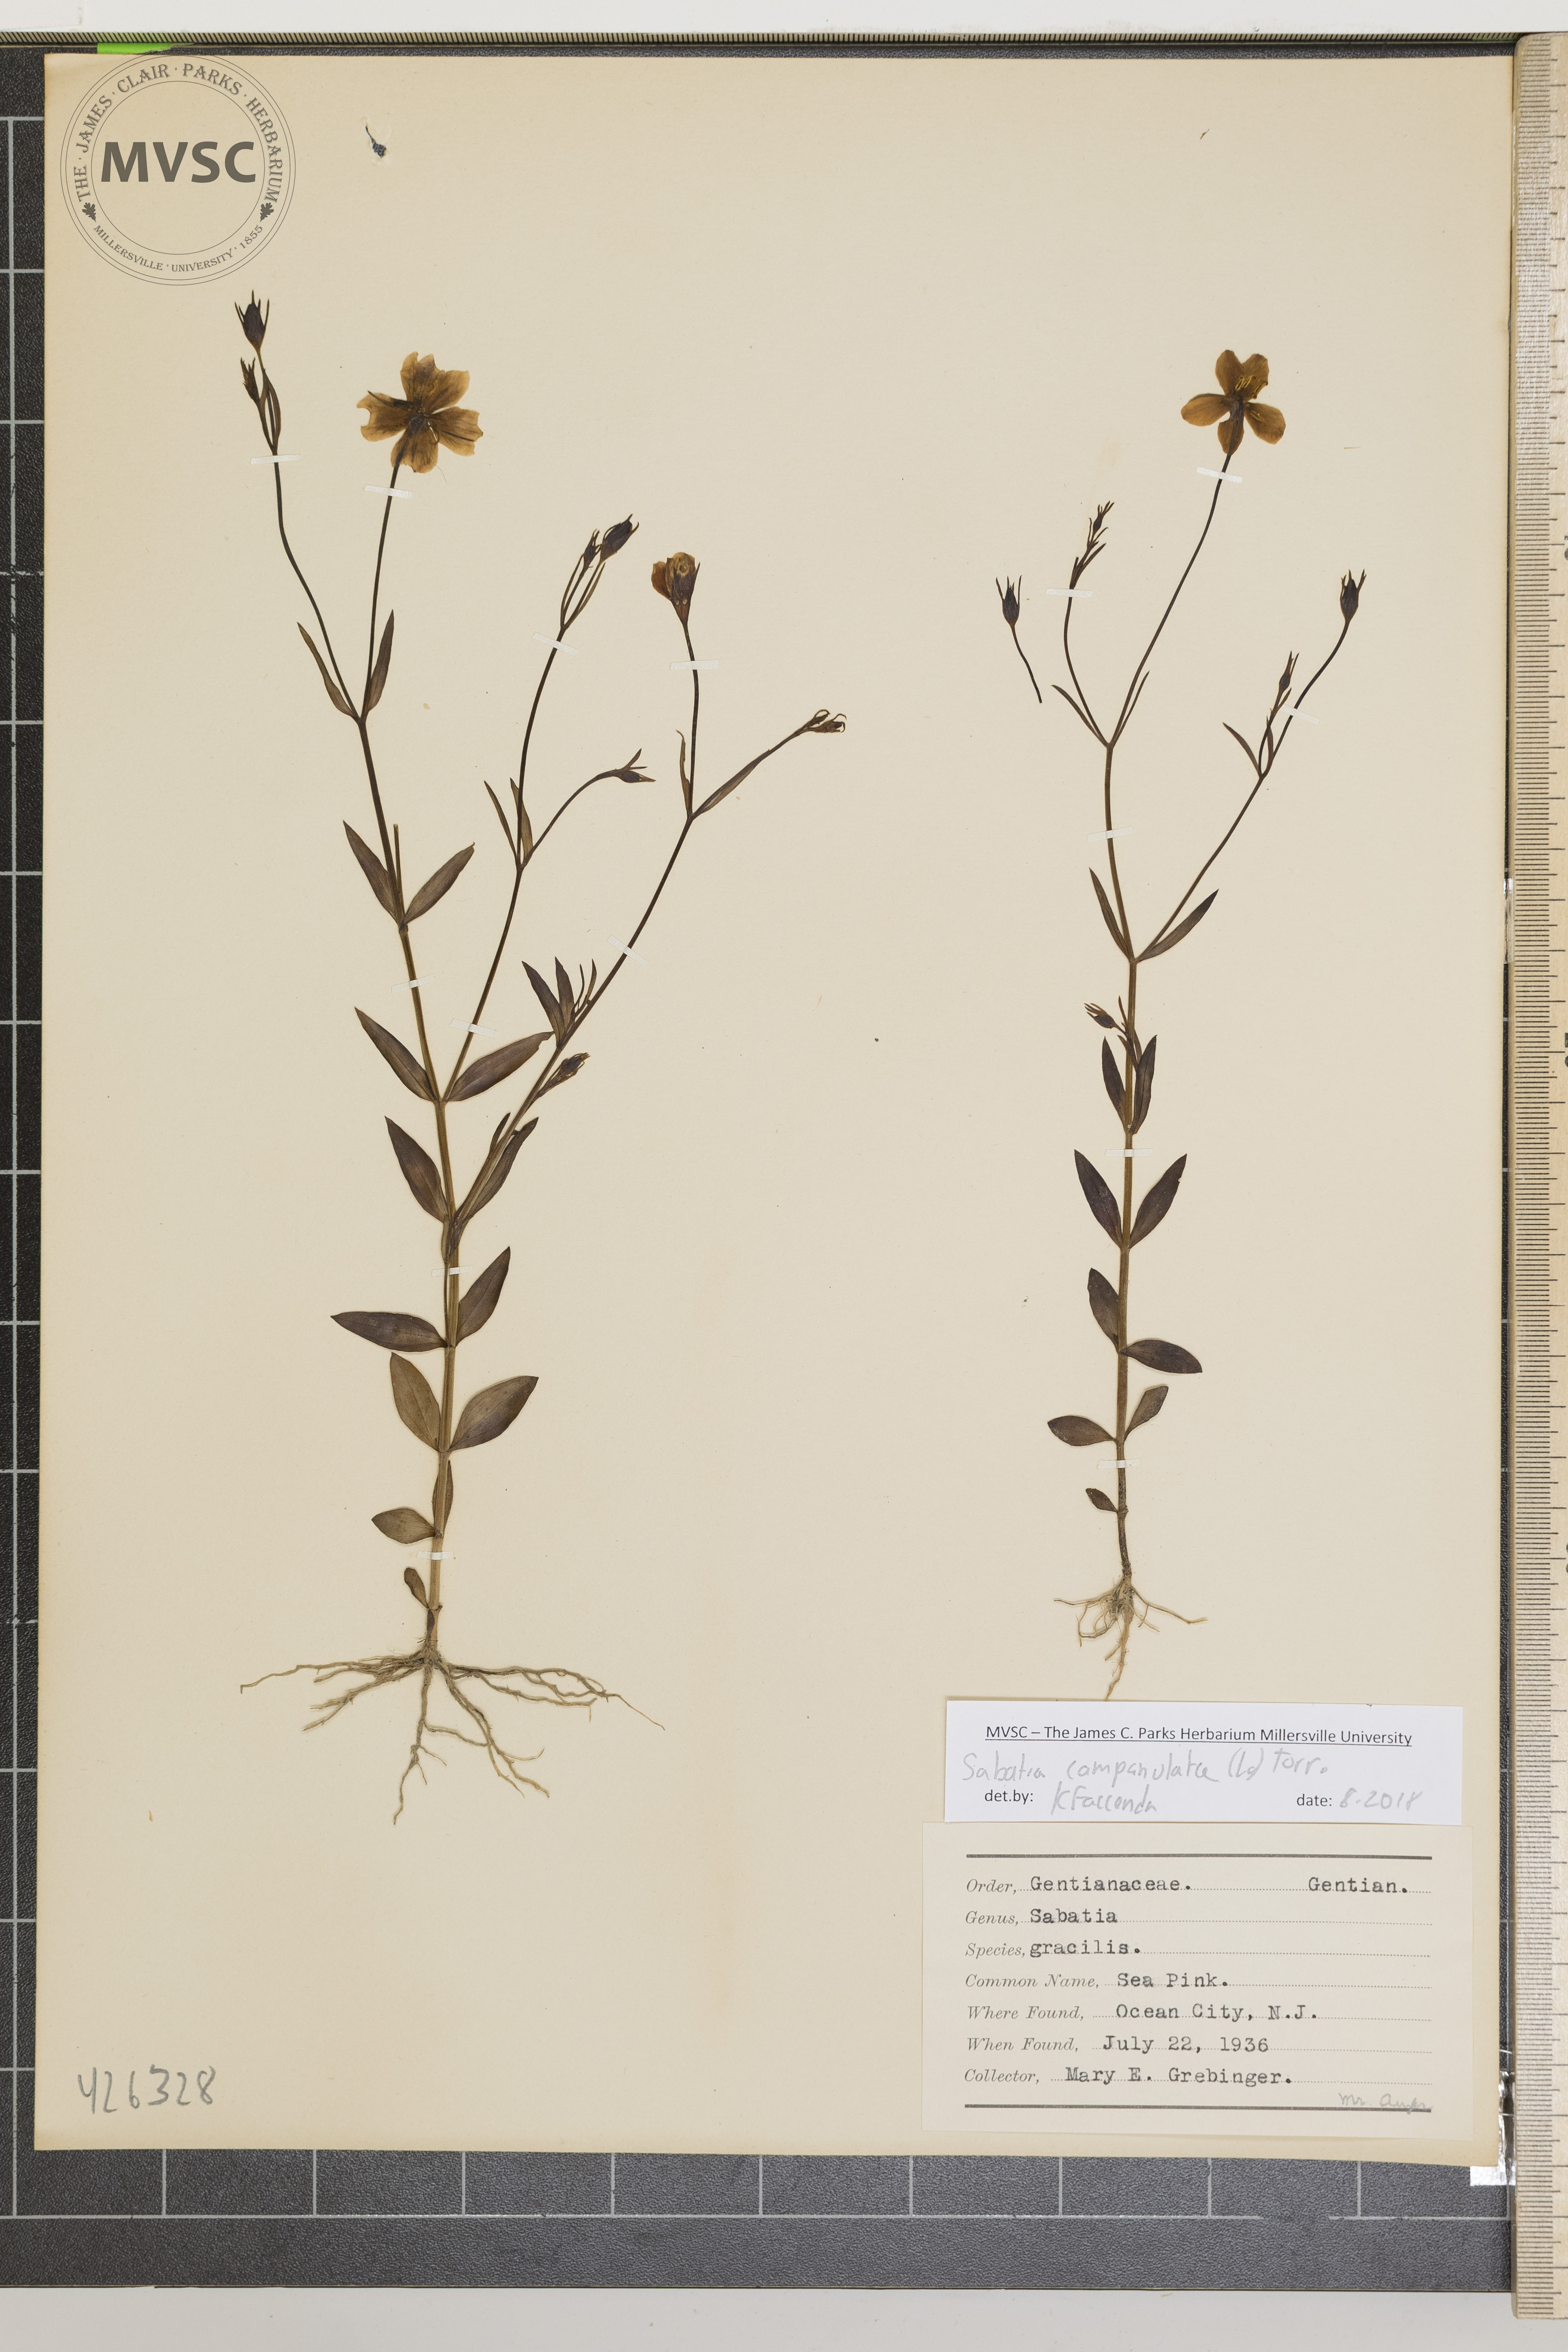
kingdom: Plantae
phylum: Tracheophyta
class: Magnoliopsida
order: Gentianales
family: Gentianaceae
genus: Sabatia
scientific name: Sabatia campanulata
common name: Sea Pink
